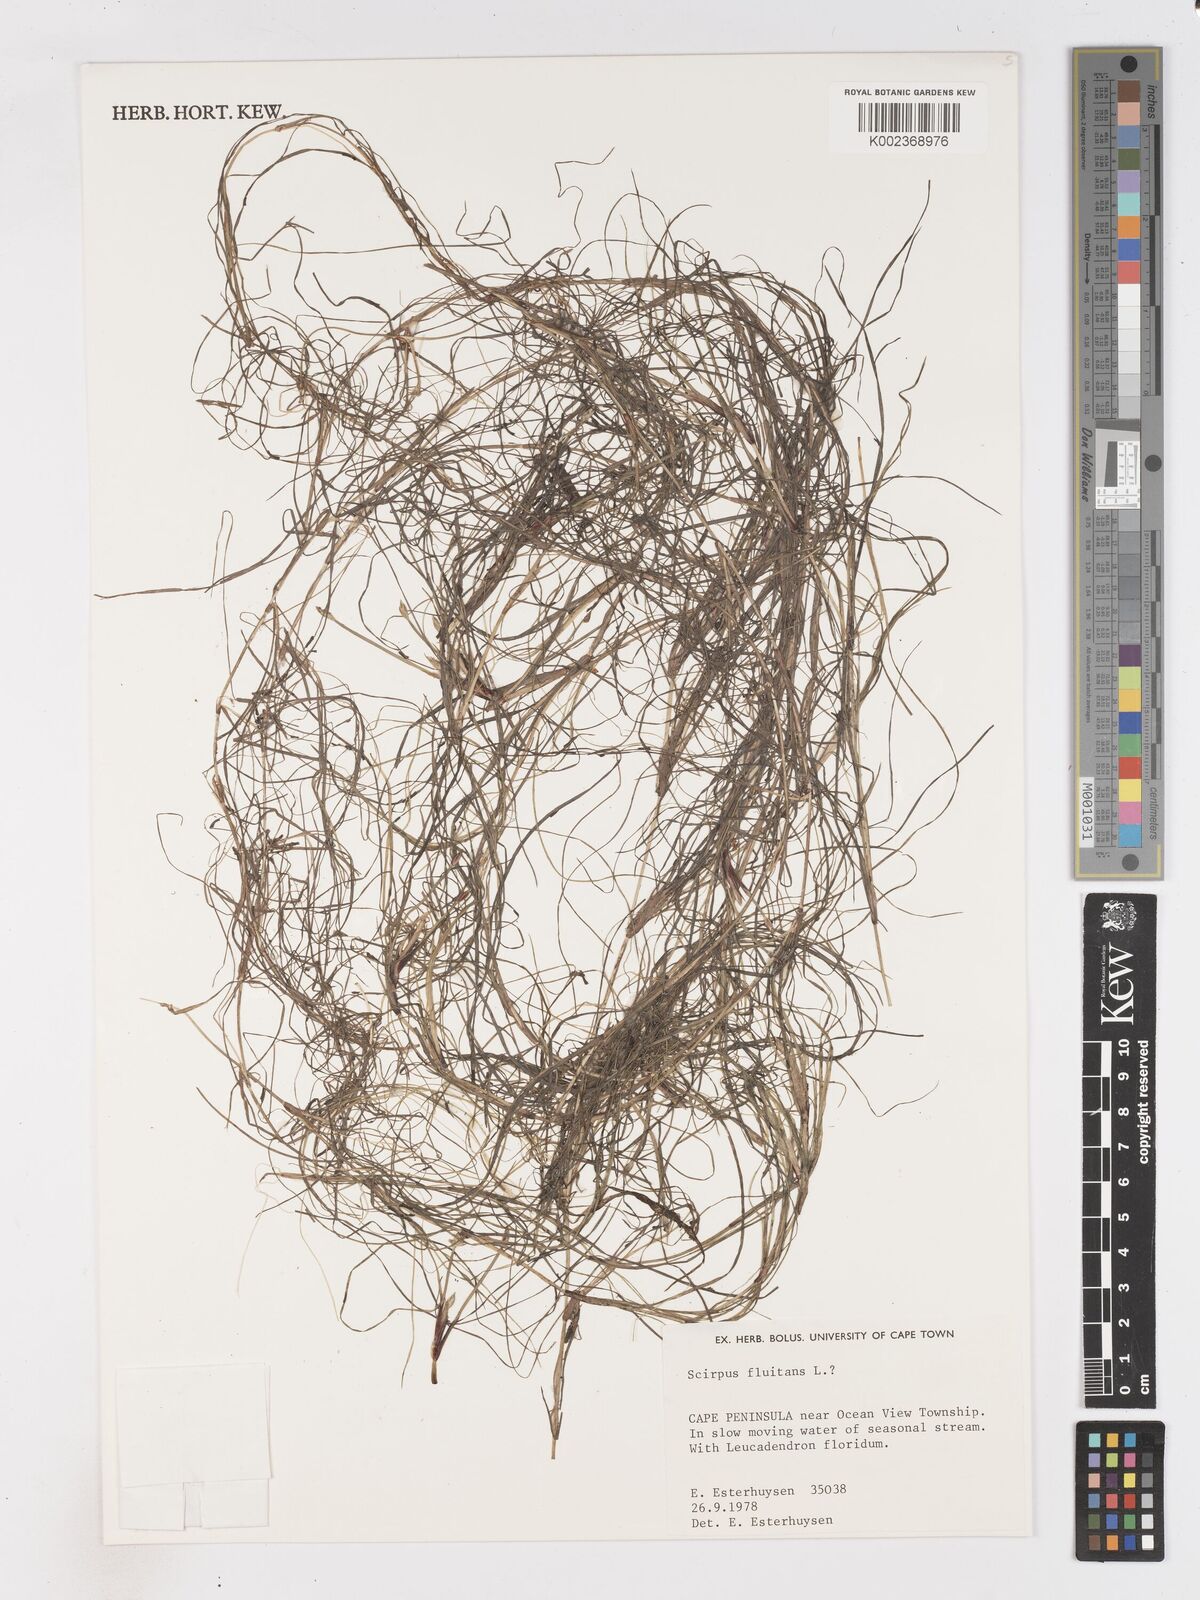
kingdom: Plantae
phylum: Tracheophyta
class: Liliopsida
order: Poales
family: Cyperaceae
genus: Isolepis
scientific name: Isolepis striata
